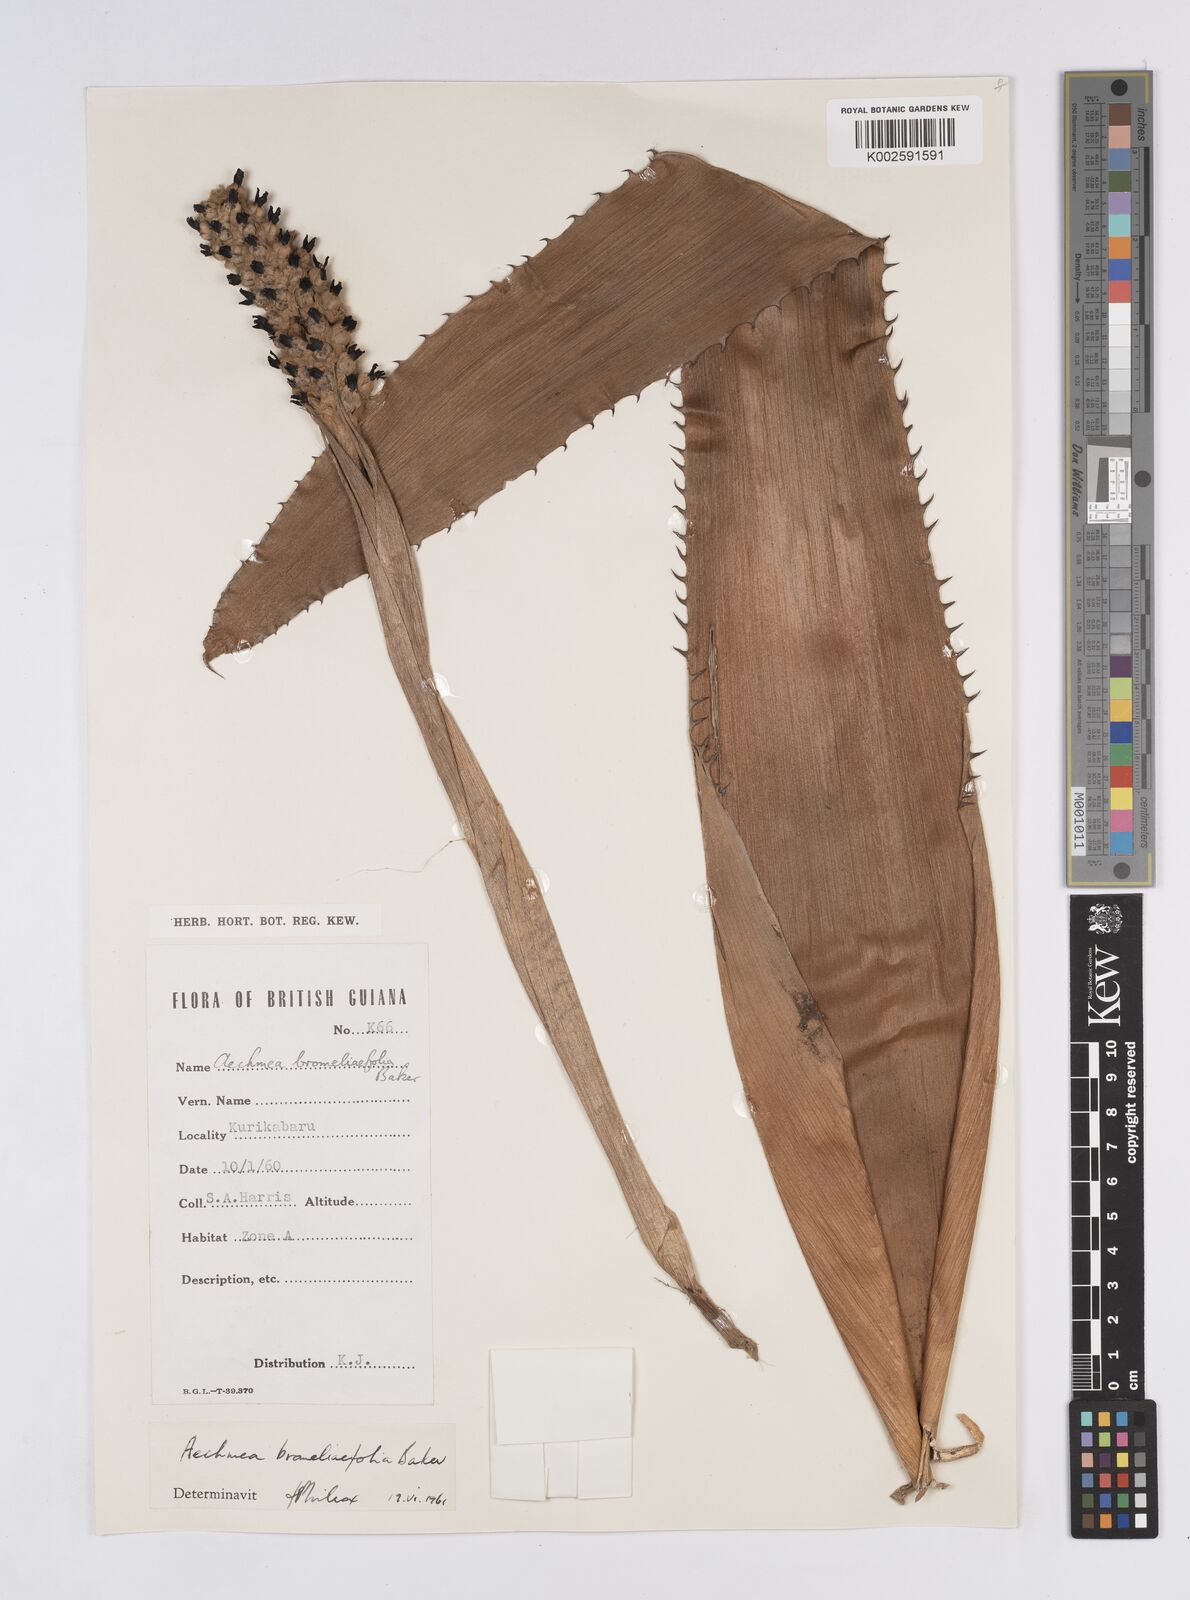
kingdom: Plantae
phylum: Tracheophyta
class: Liliopsida
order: Poales
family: Bromeliaceae
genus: Aechmea
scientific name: Aechmea bromeliifolia
